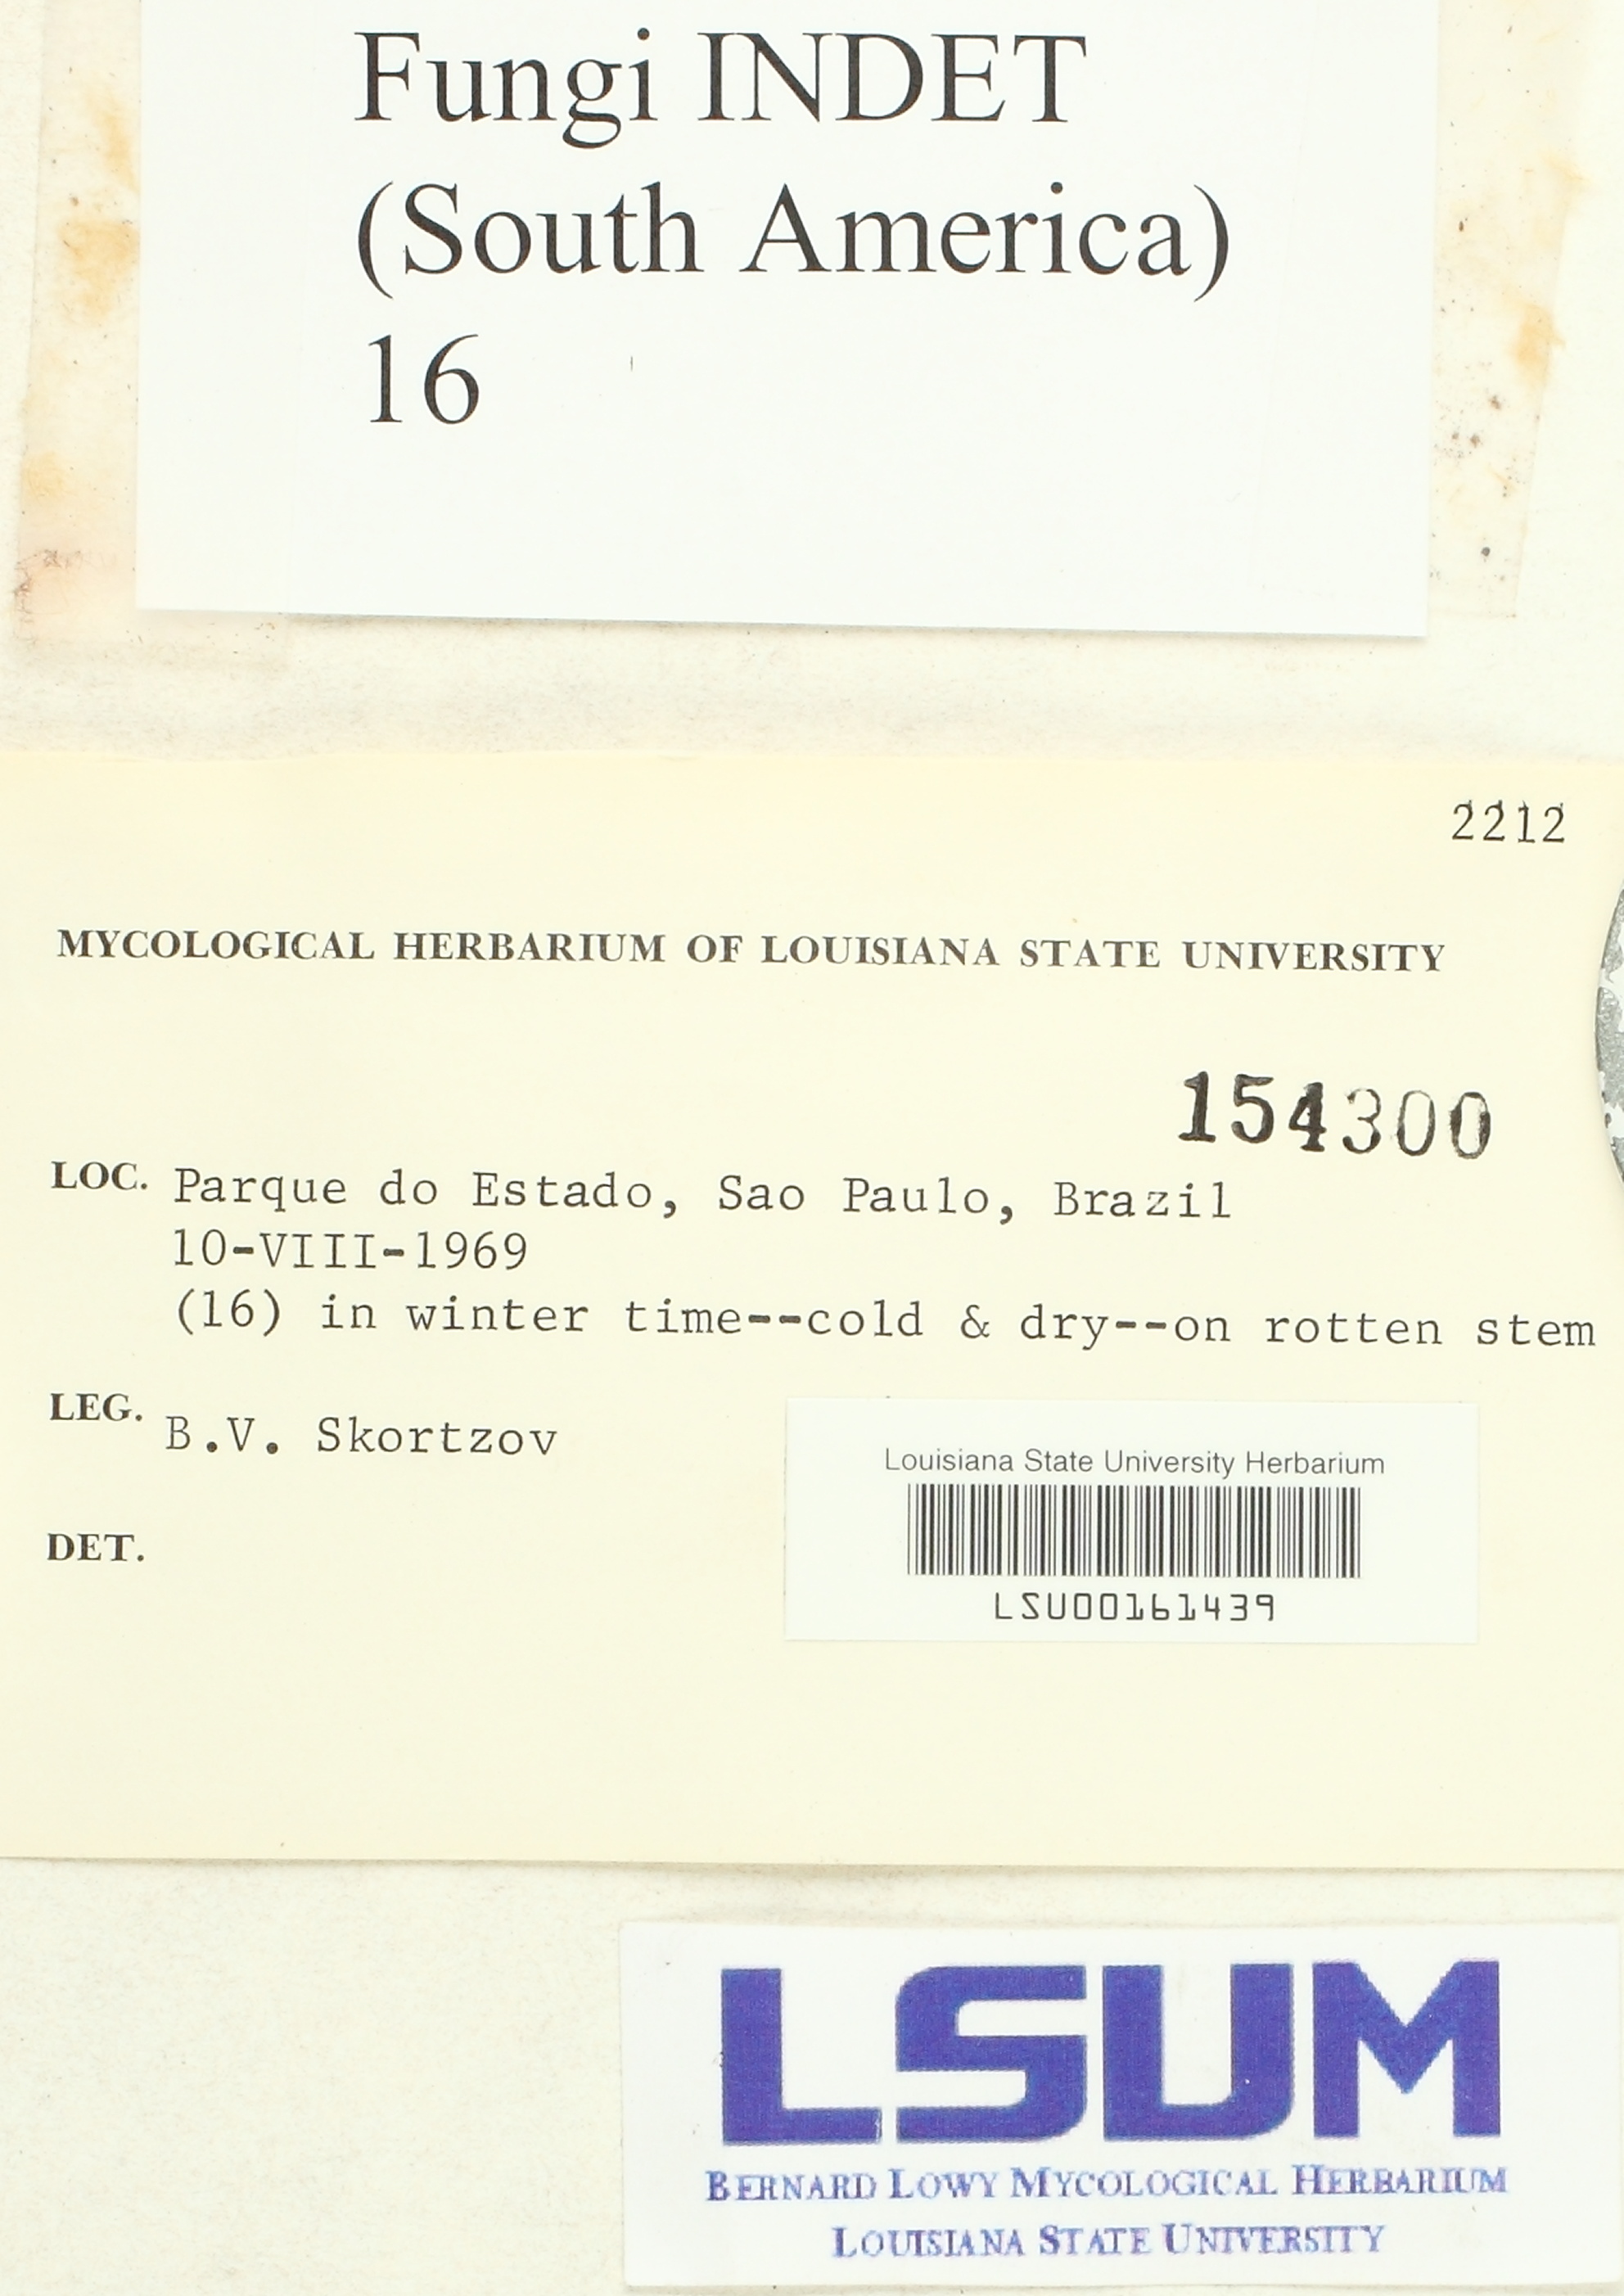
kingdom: Fungi
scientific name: Fungi
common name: Fungi
